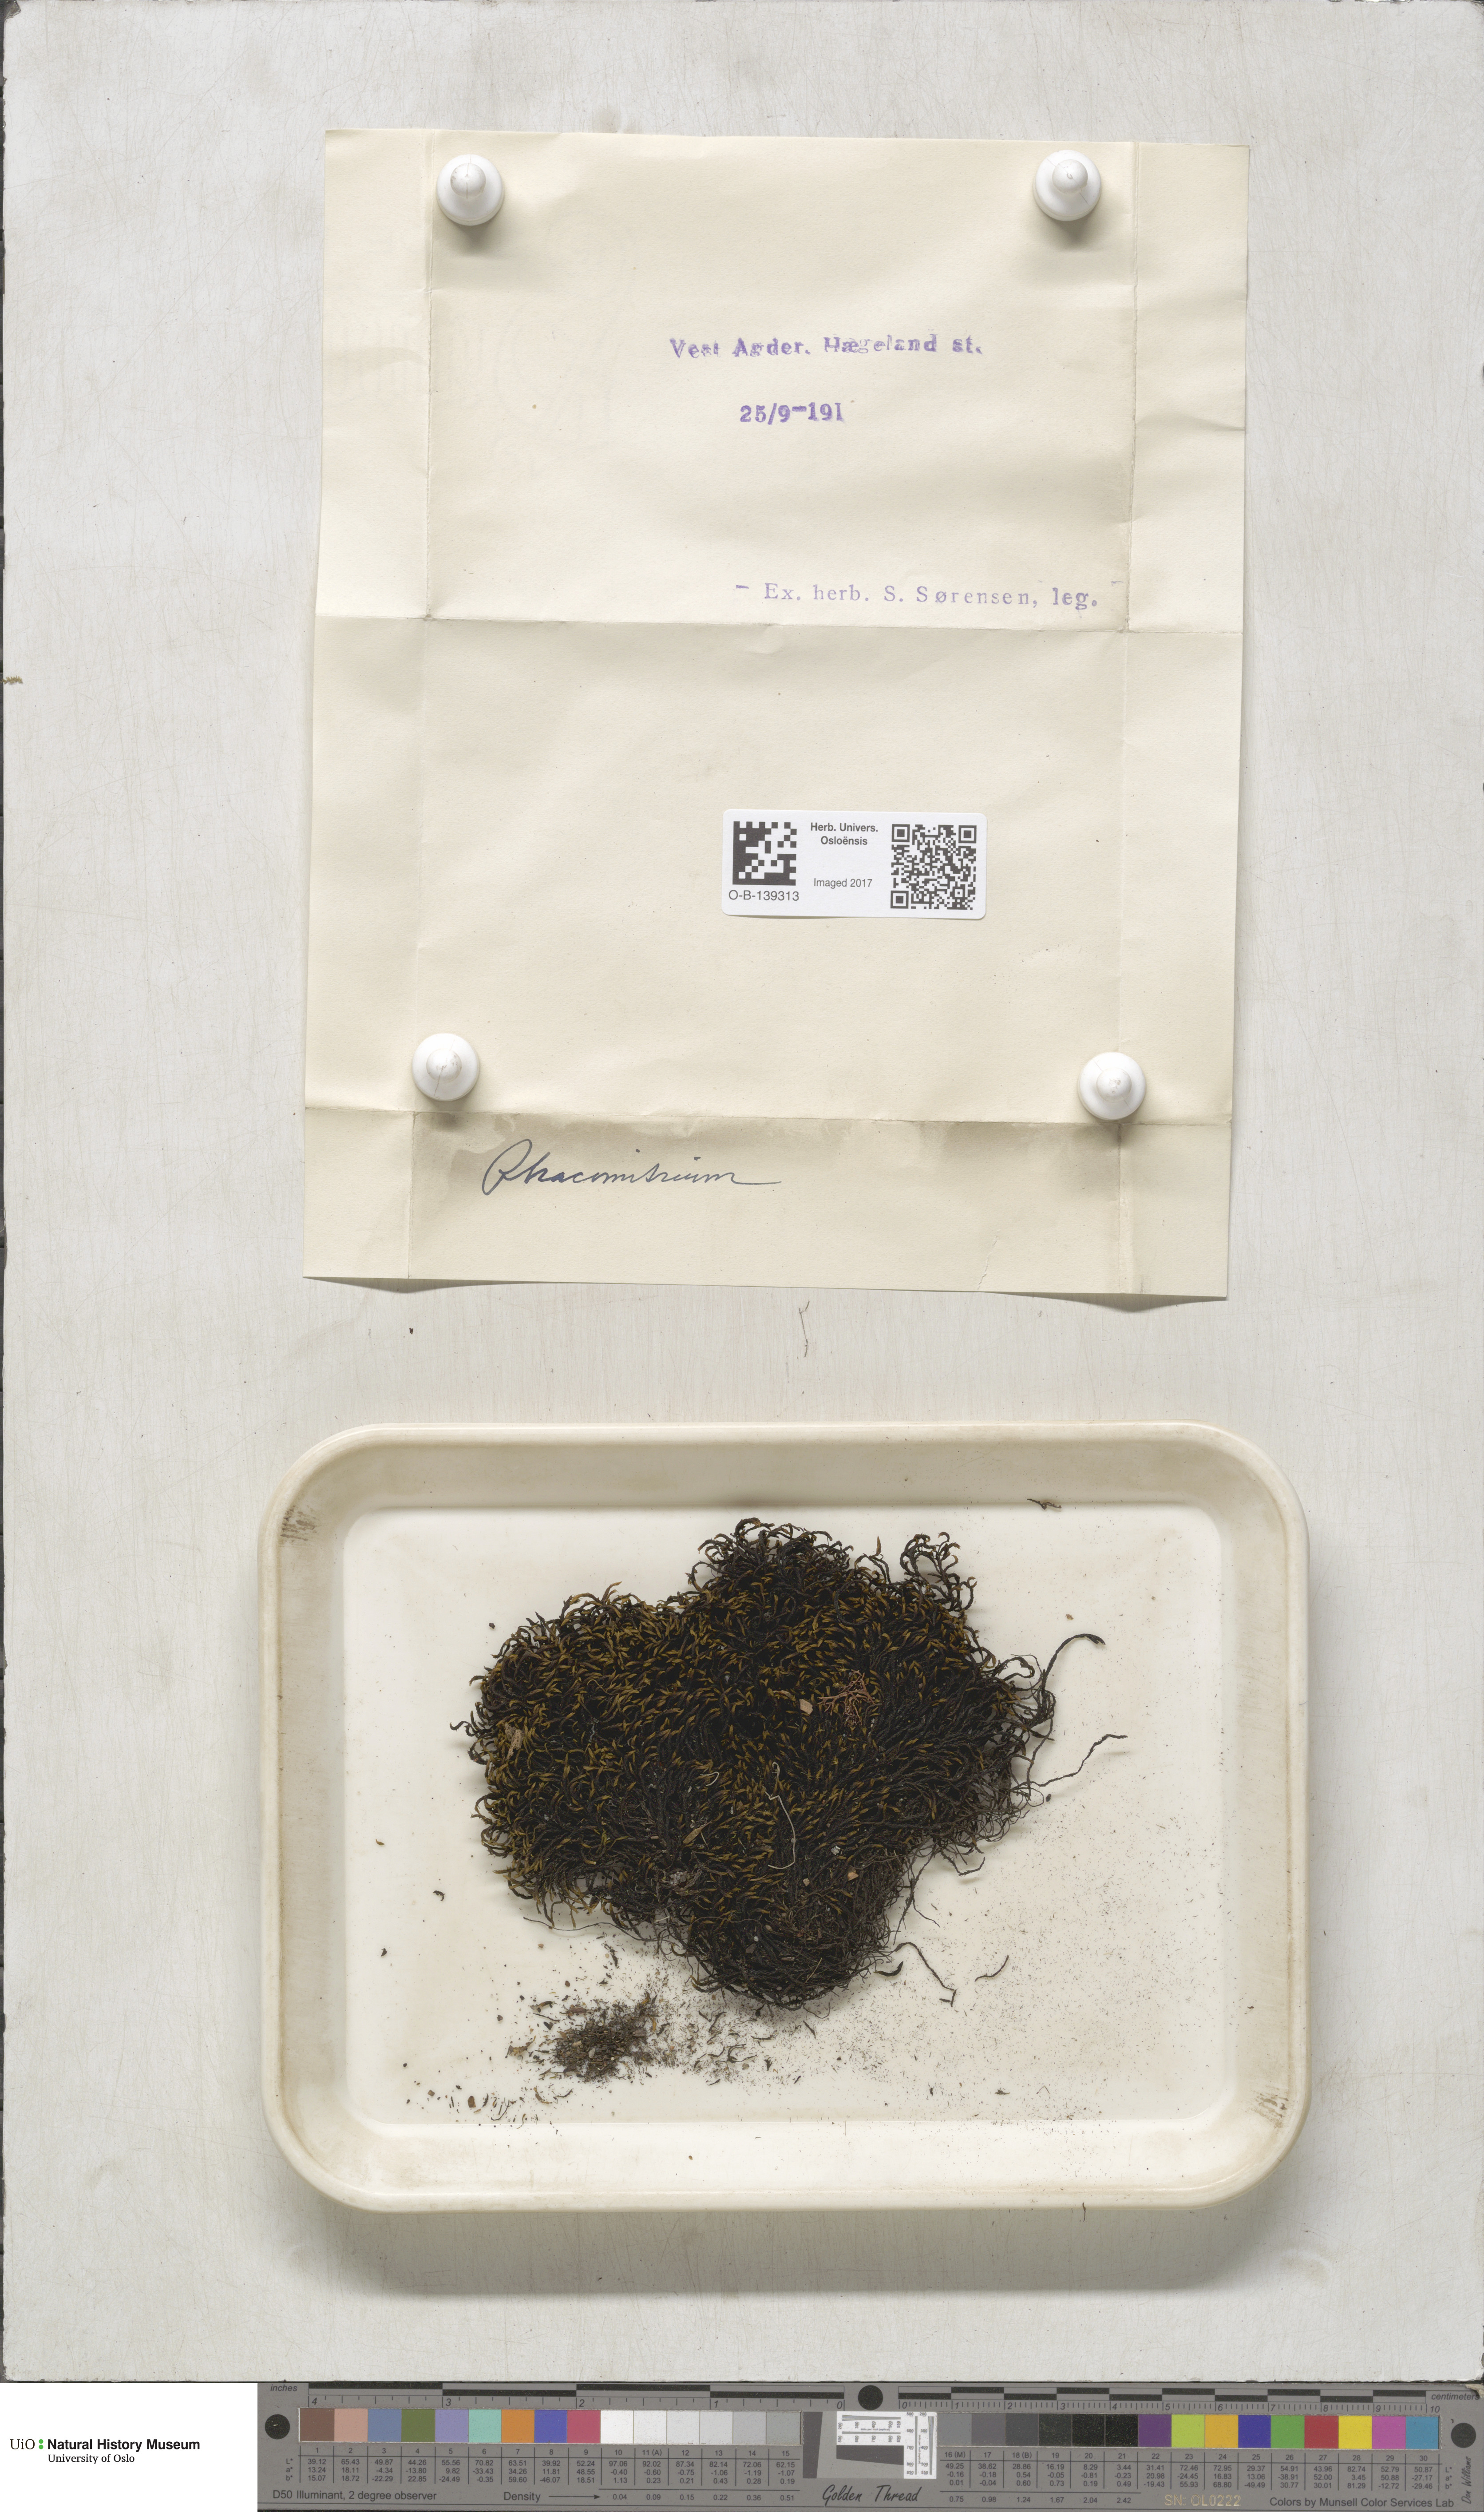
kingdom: Plantae
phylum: Bryophyta
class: Bryopsida
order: Grimmiales
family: Grimmiaceae
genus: Racomitrium
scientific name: Racomitrium
